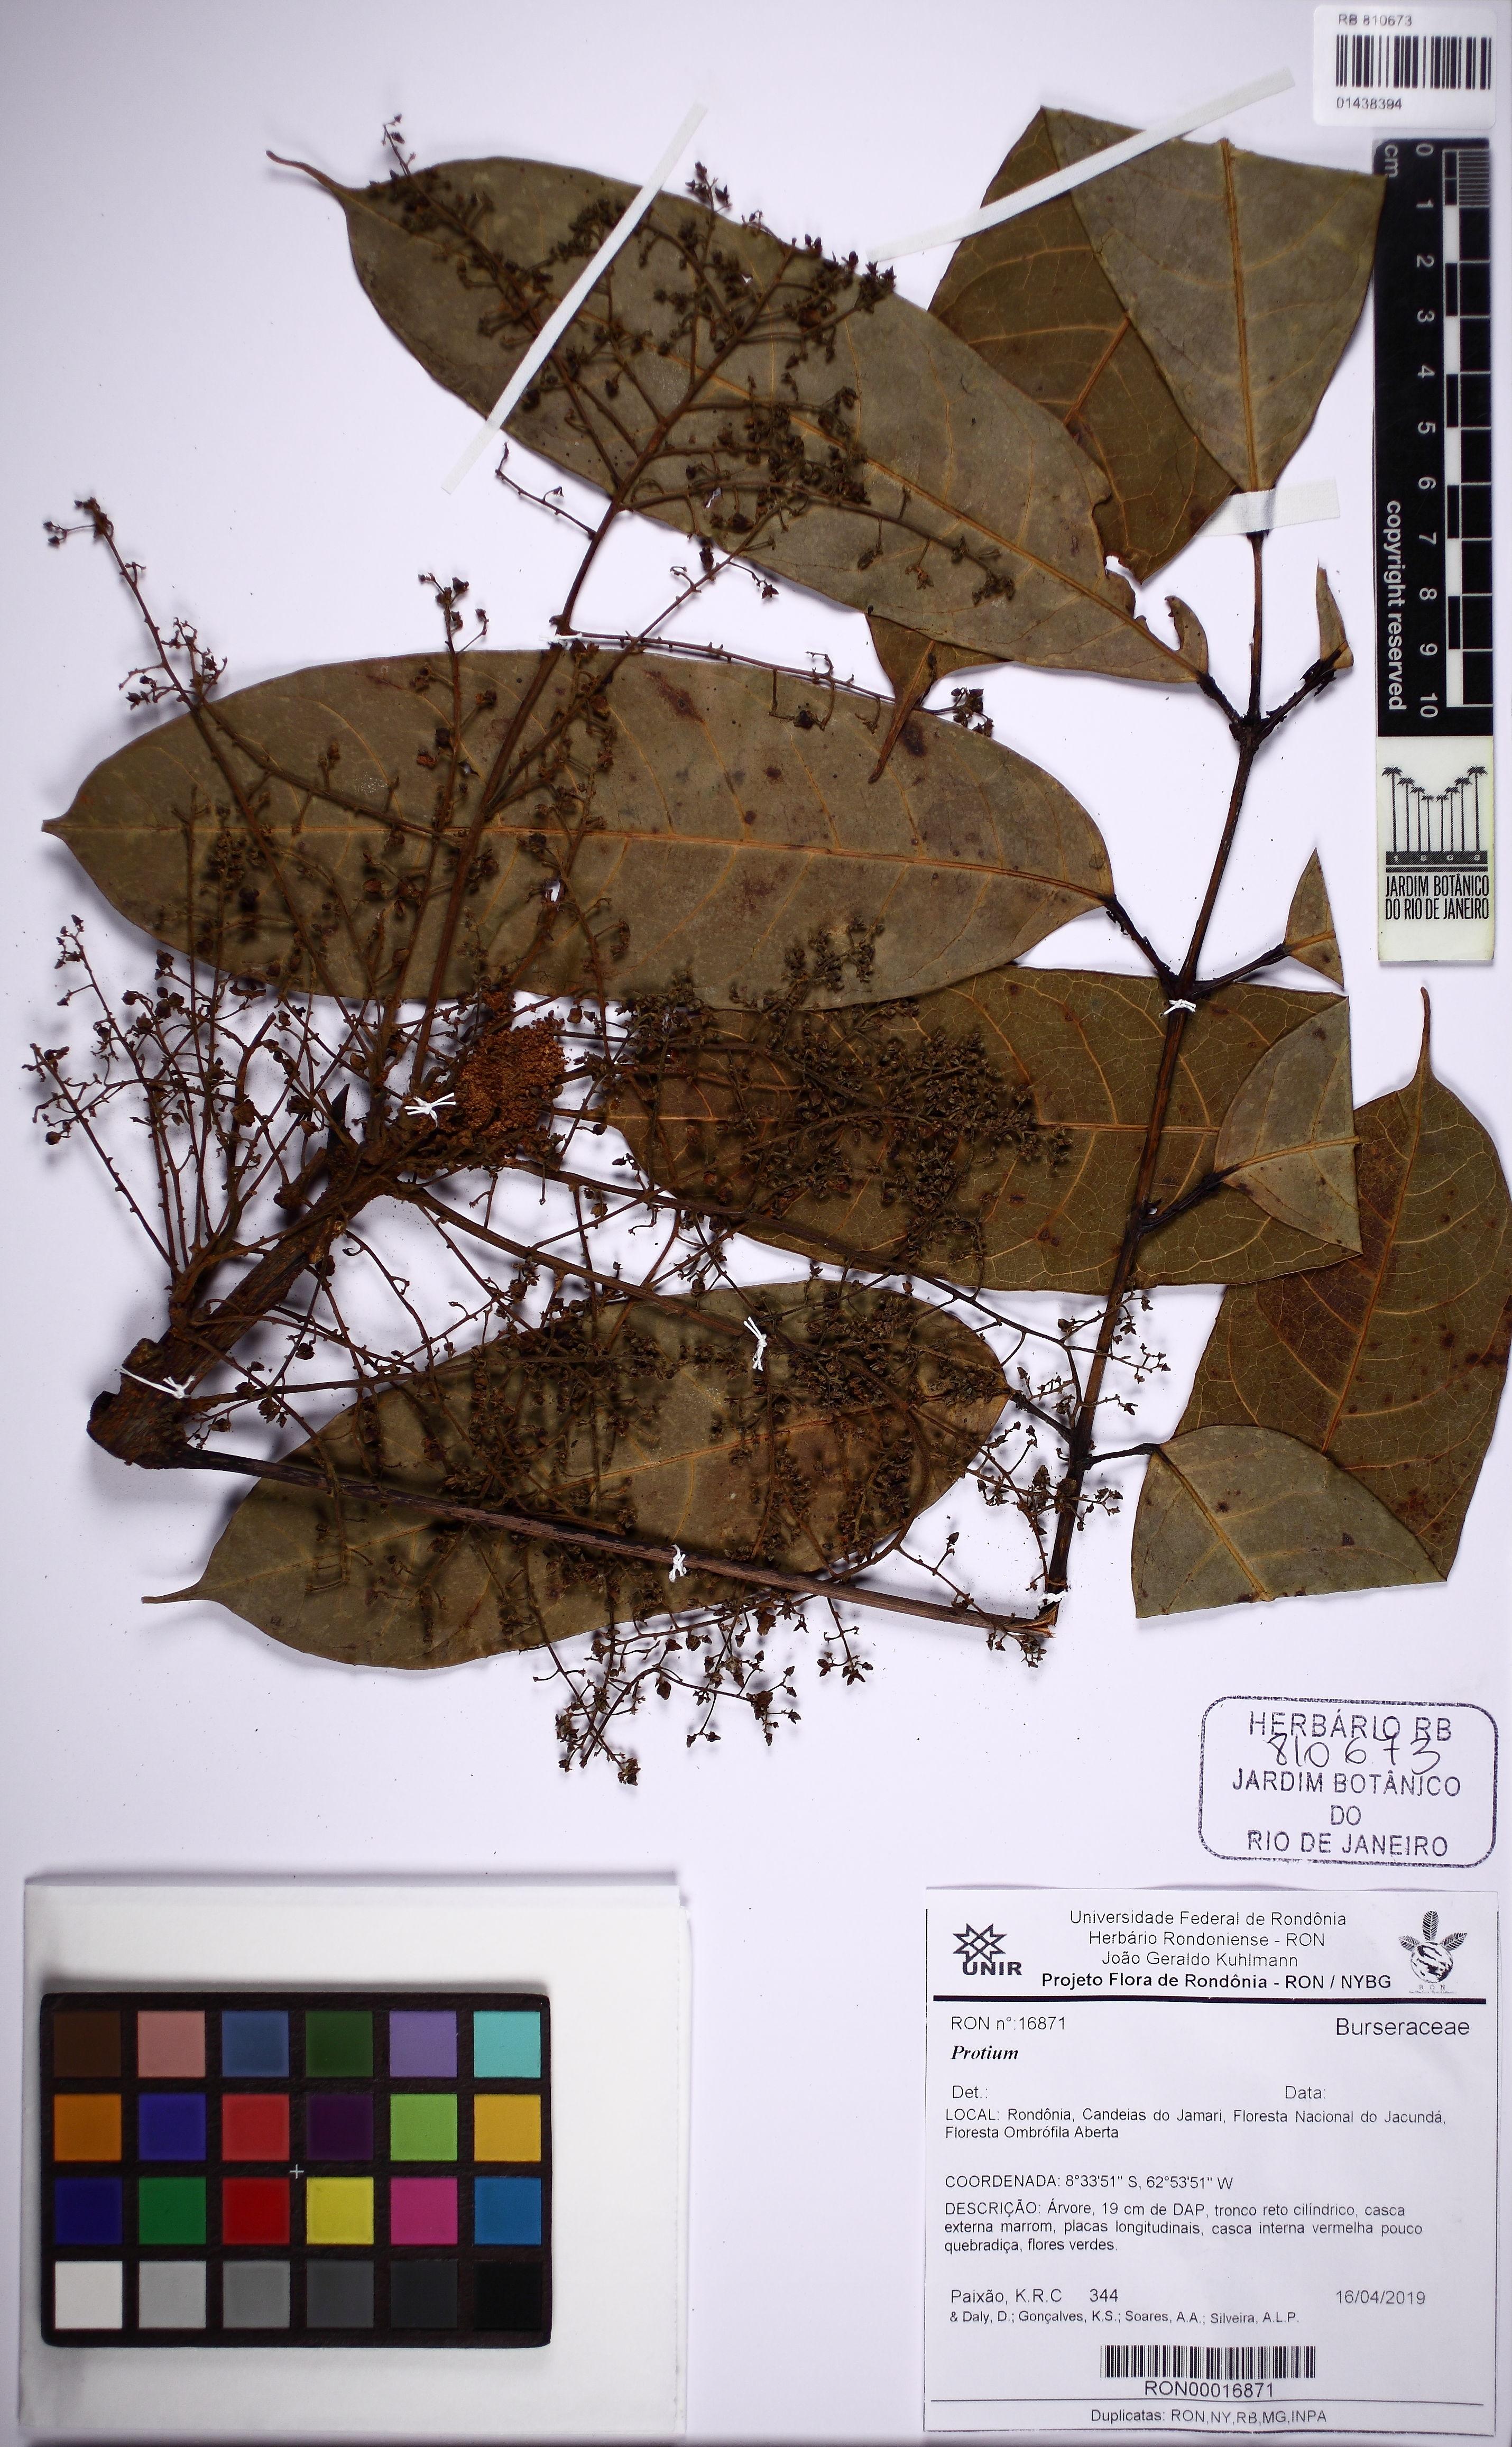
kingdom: Plantae
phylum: Tracheophyta
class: Magnoliopsida
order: Sapindales
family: Burseraceae
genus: Protium
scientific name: Protium rubrum
